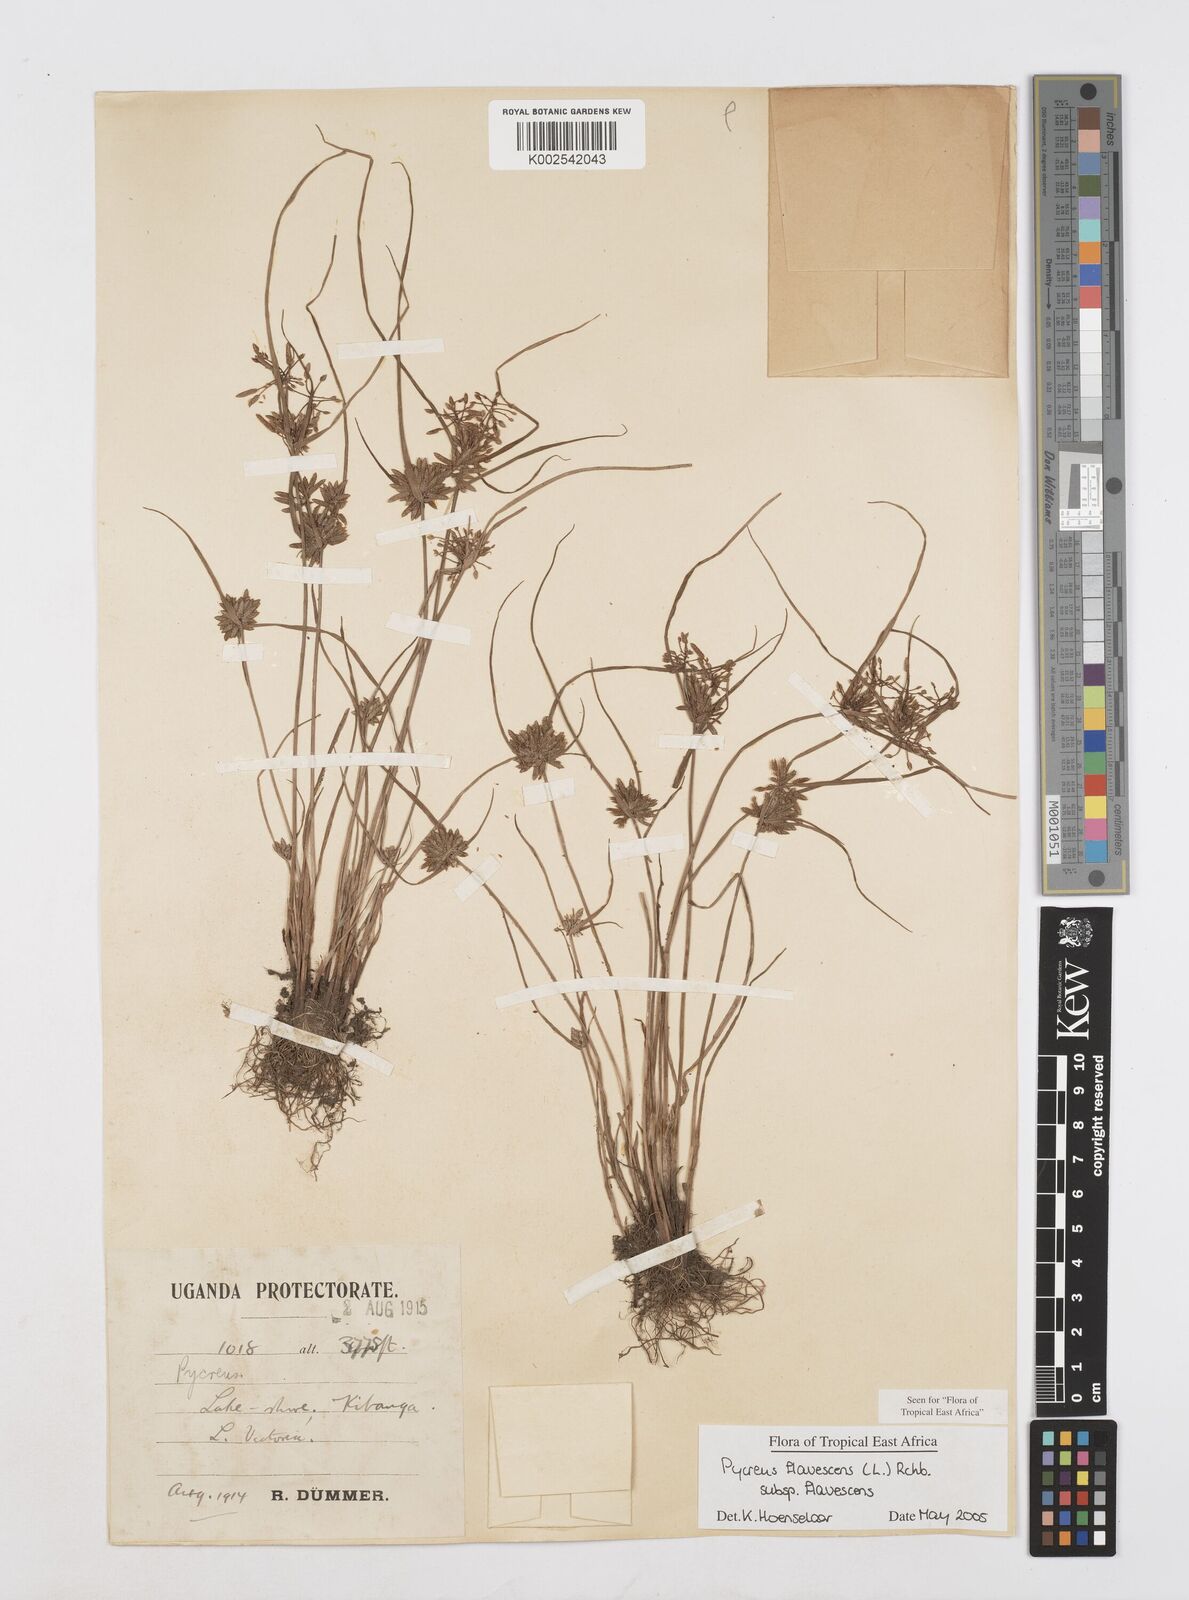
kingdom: Plantae
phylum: Tracheophyta
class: Liliopsida
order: Poales
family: Cyperaceae
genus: Cyperus
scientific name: Cyperus flavescens
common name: Yellow galingale
